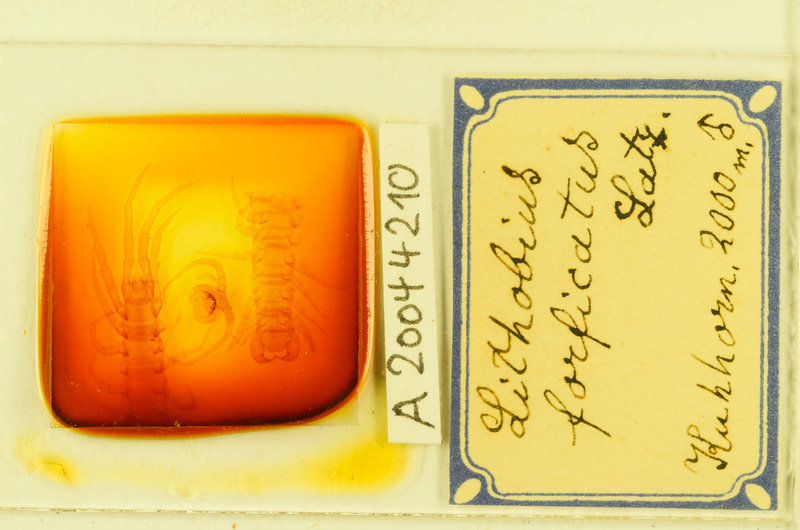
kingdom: Animalia
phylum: Arthropoda
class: Chilopoda
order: Lithobiomorpha
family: Lithobiidae
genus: Lithobius
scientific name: Lithobius forficatus
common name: Centipede
